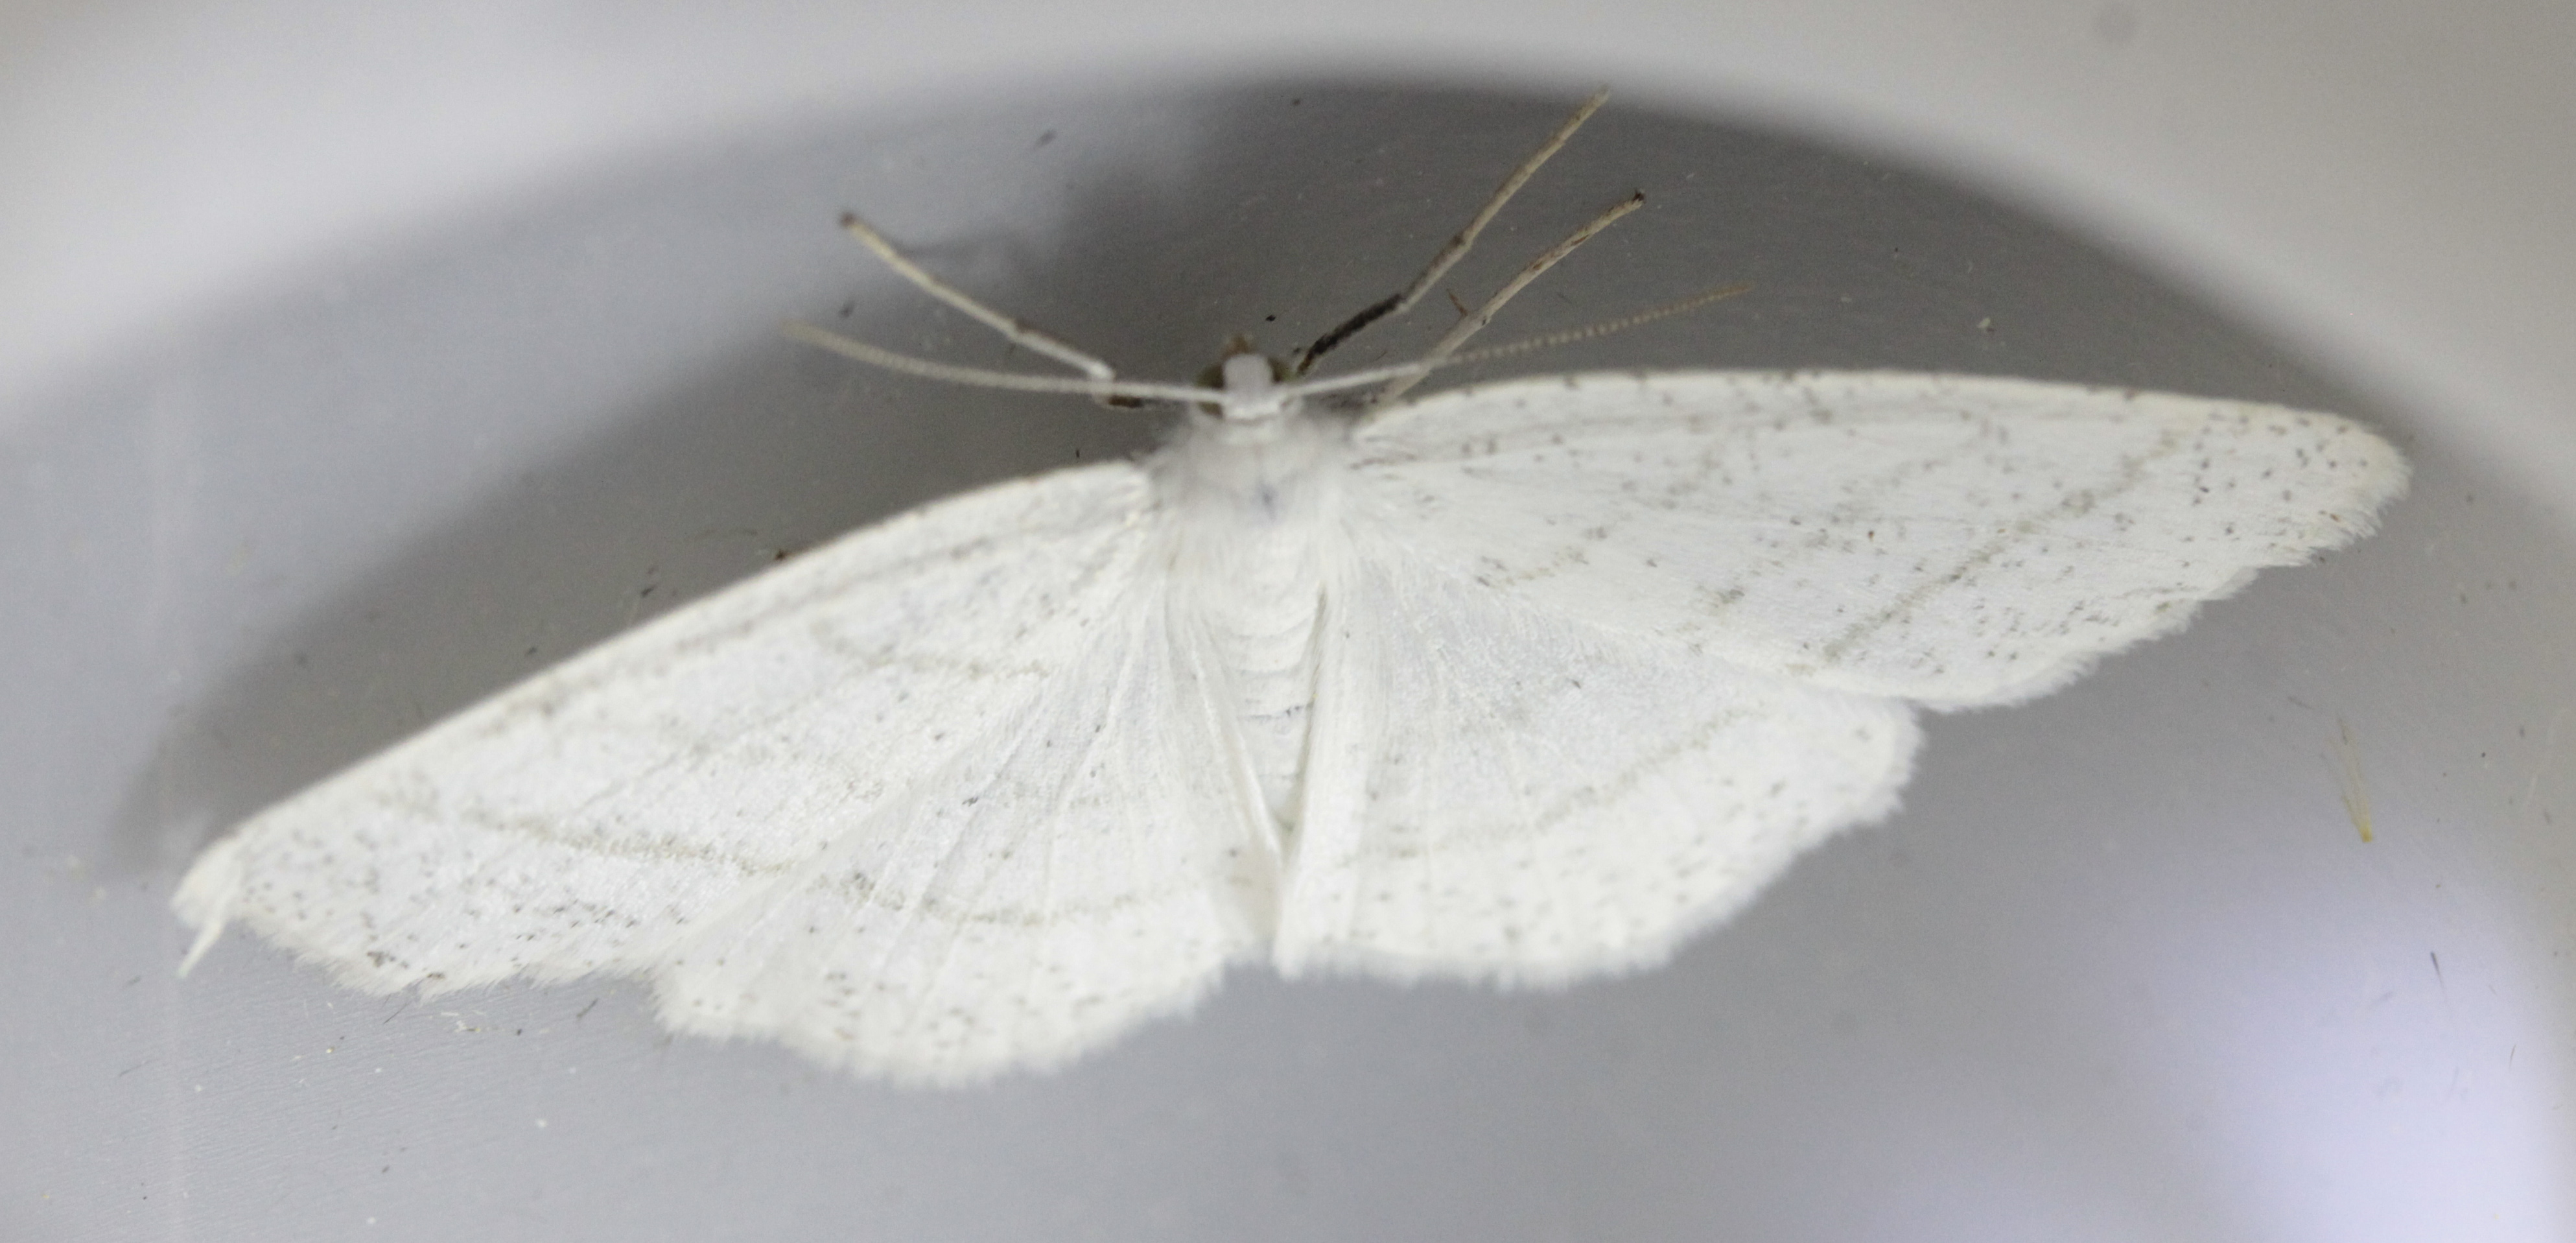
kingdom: Animalia
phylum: Arthropoda
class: Insecta
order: Lepidoptera
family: Geometridae
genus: Cabera
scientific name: Cabera pusaria
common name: Common white wave
